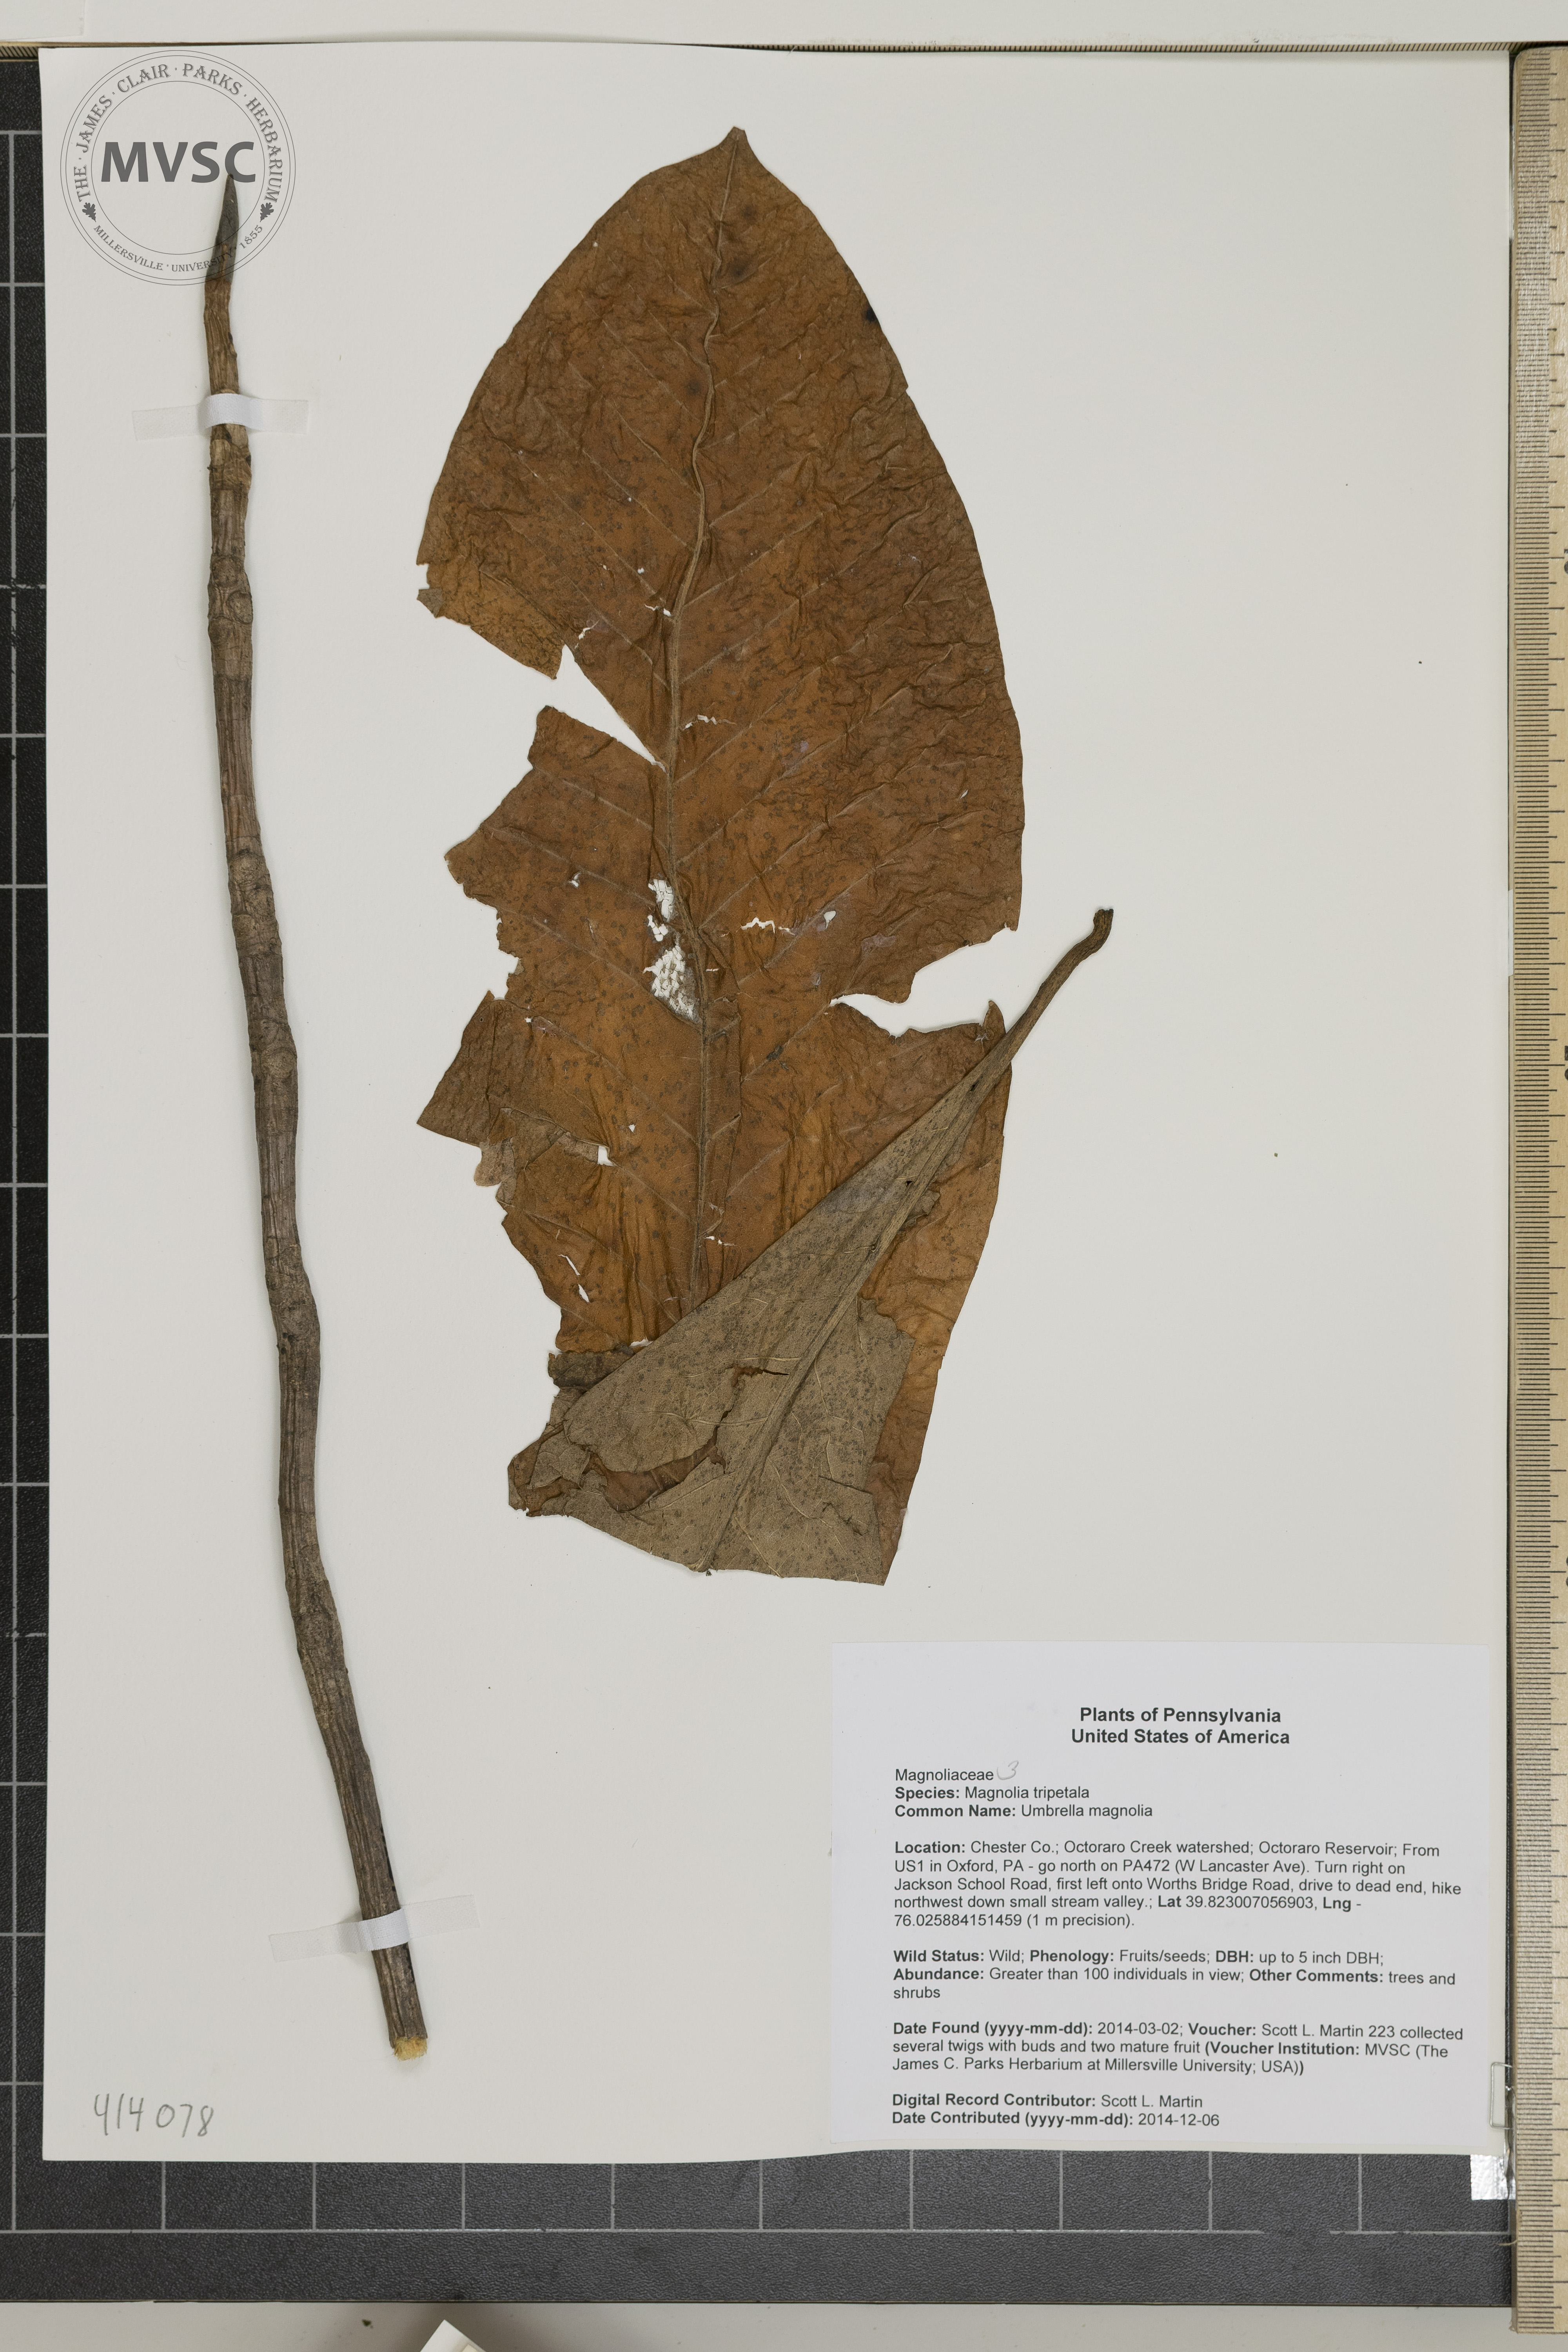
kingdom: Plantae
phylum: Tracheophyta
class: Magnoliopsida
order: Magnoliales
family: Magnoliaceae
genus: Magnolia
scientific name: Magnolia tripetala
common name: Umbrella magnolia
